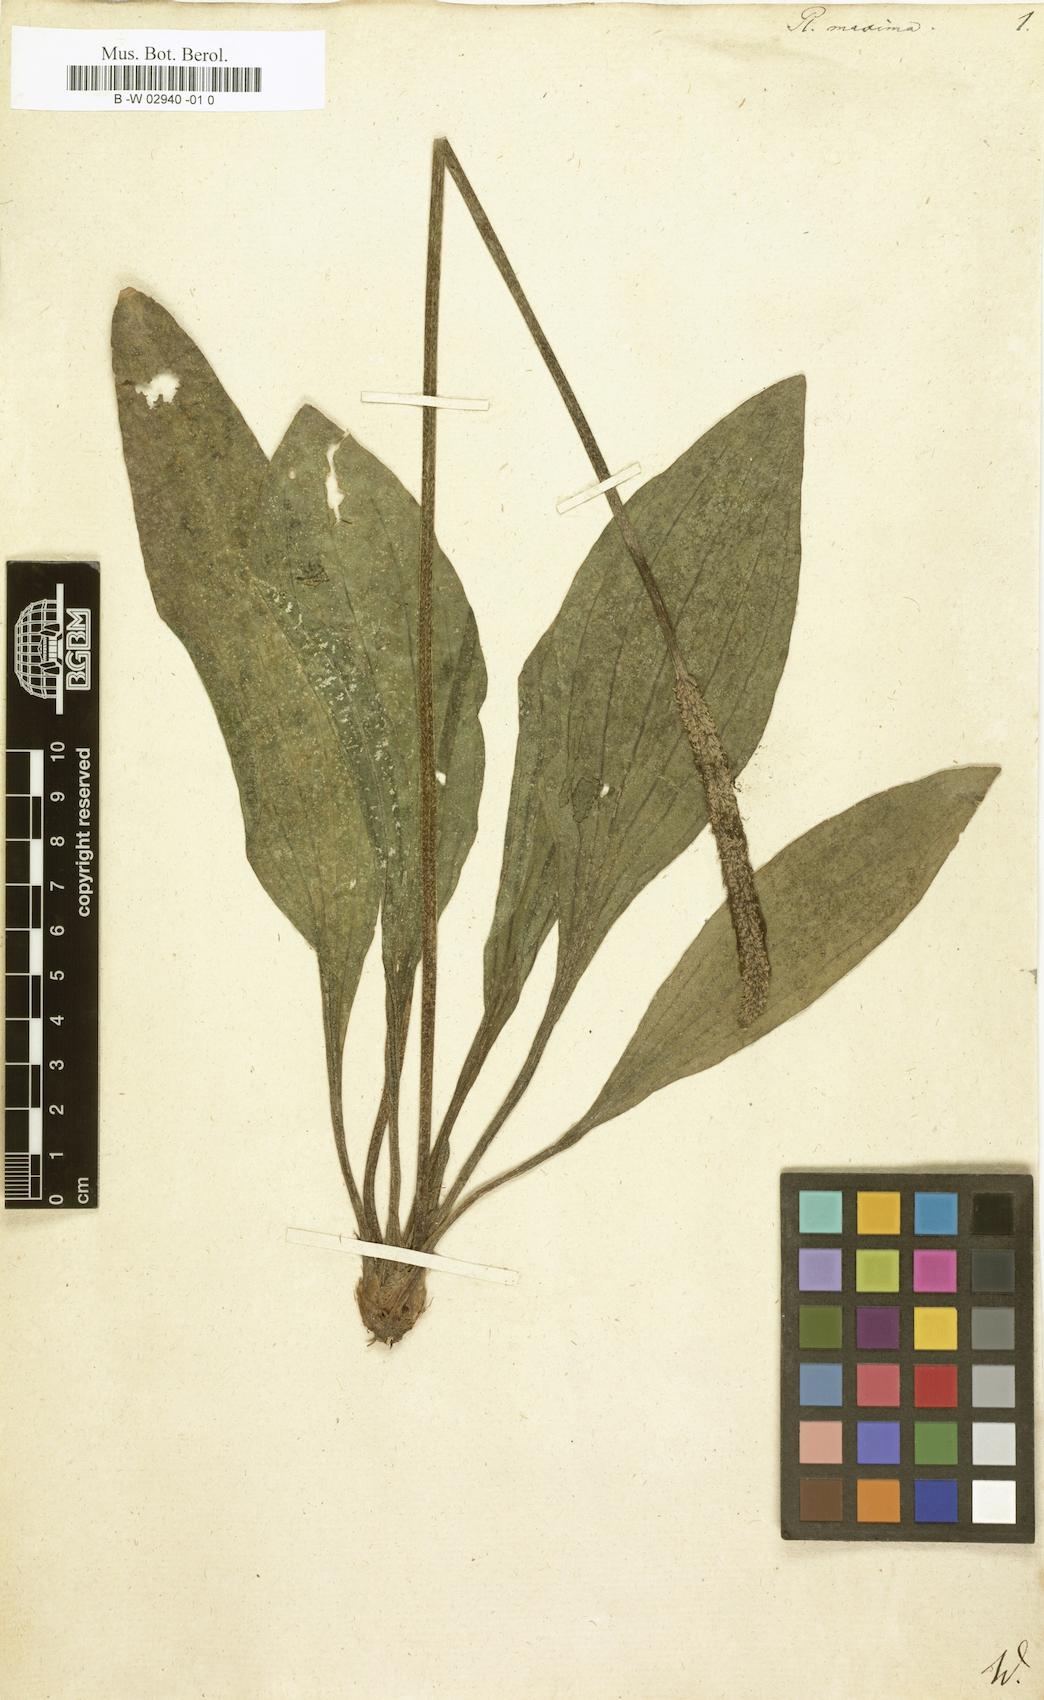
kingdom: Plantae
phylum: Tracheophyta
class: Magnoliopsida
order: Lamiales
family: Plantaginaceae
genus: Plantago
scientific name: Plantago maxima
